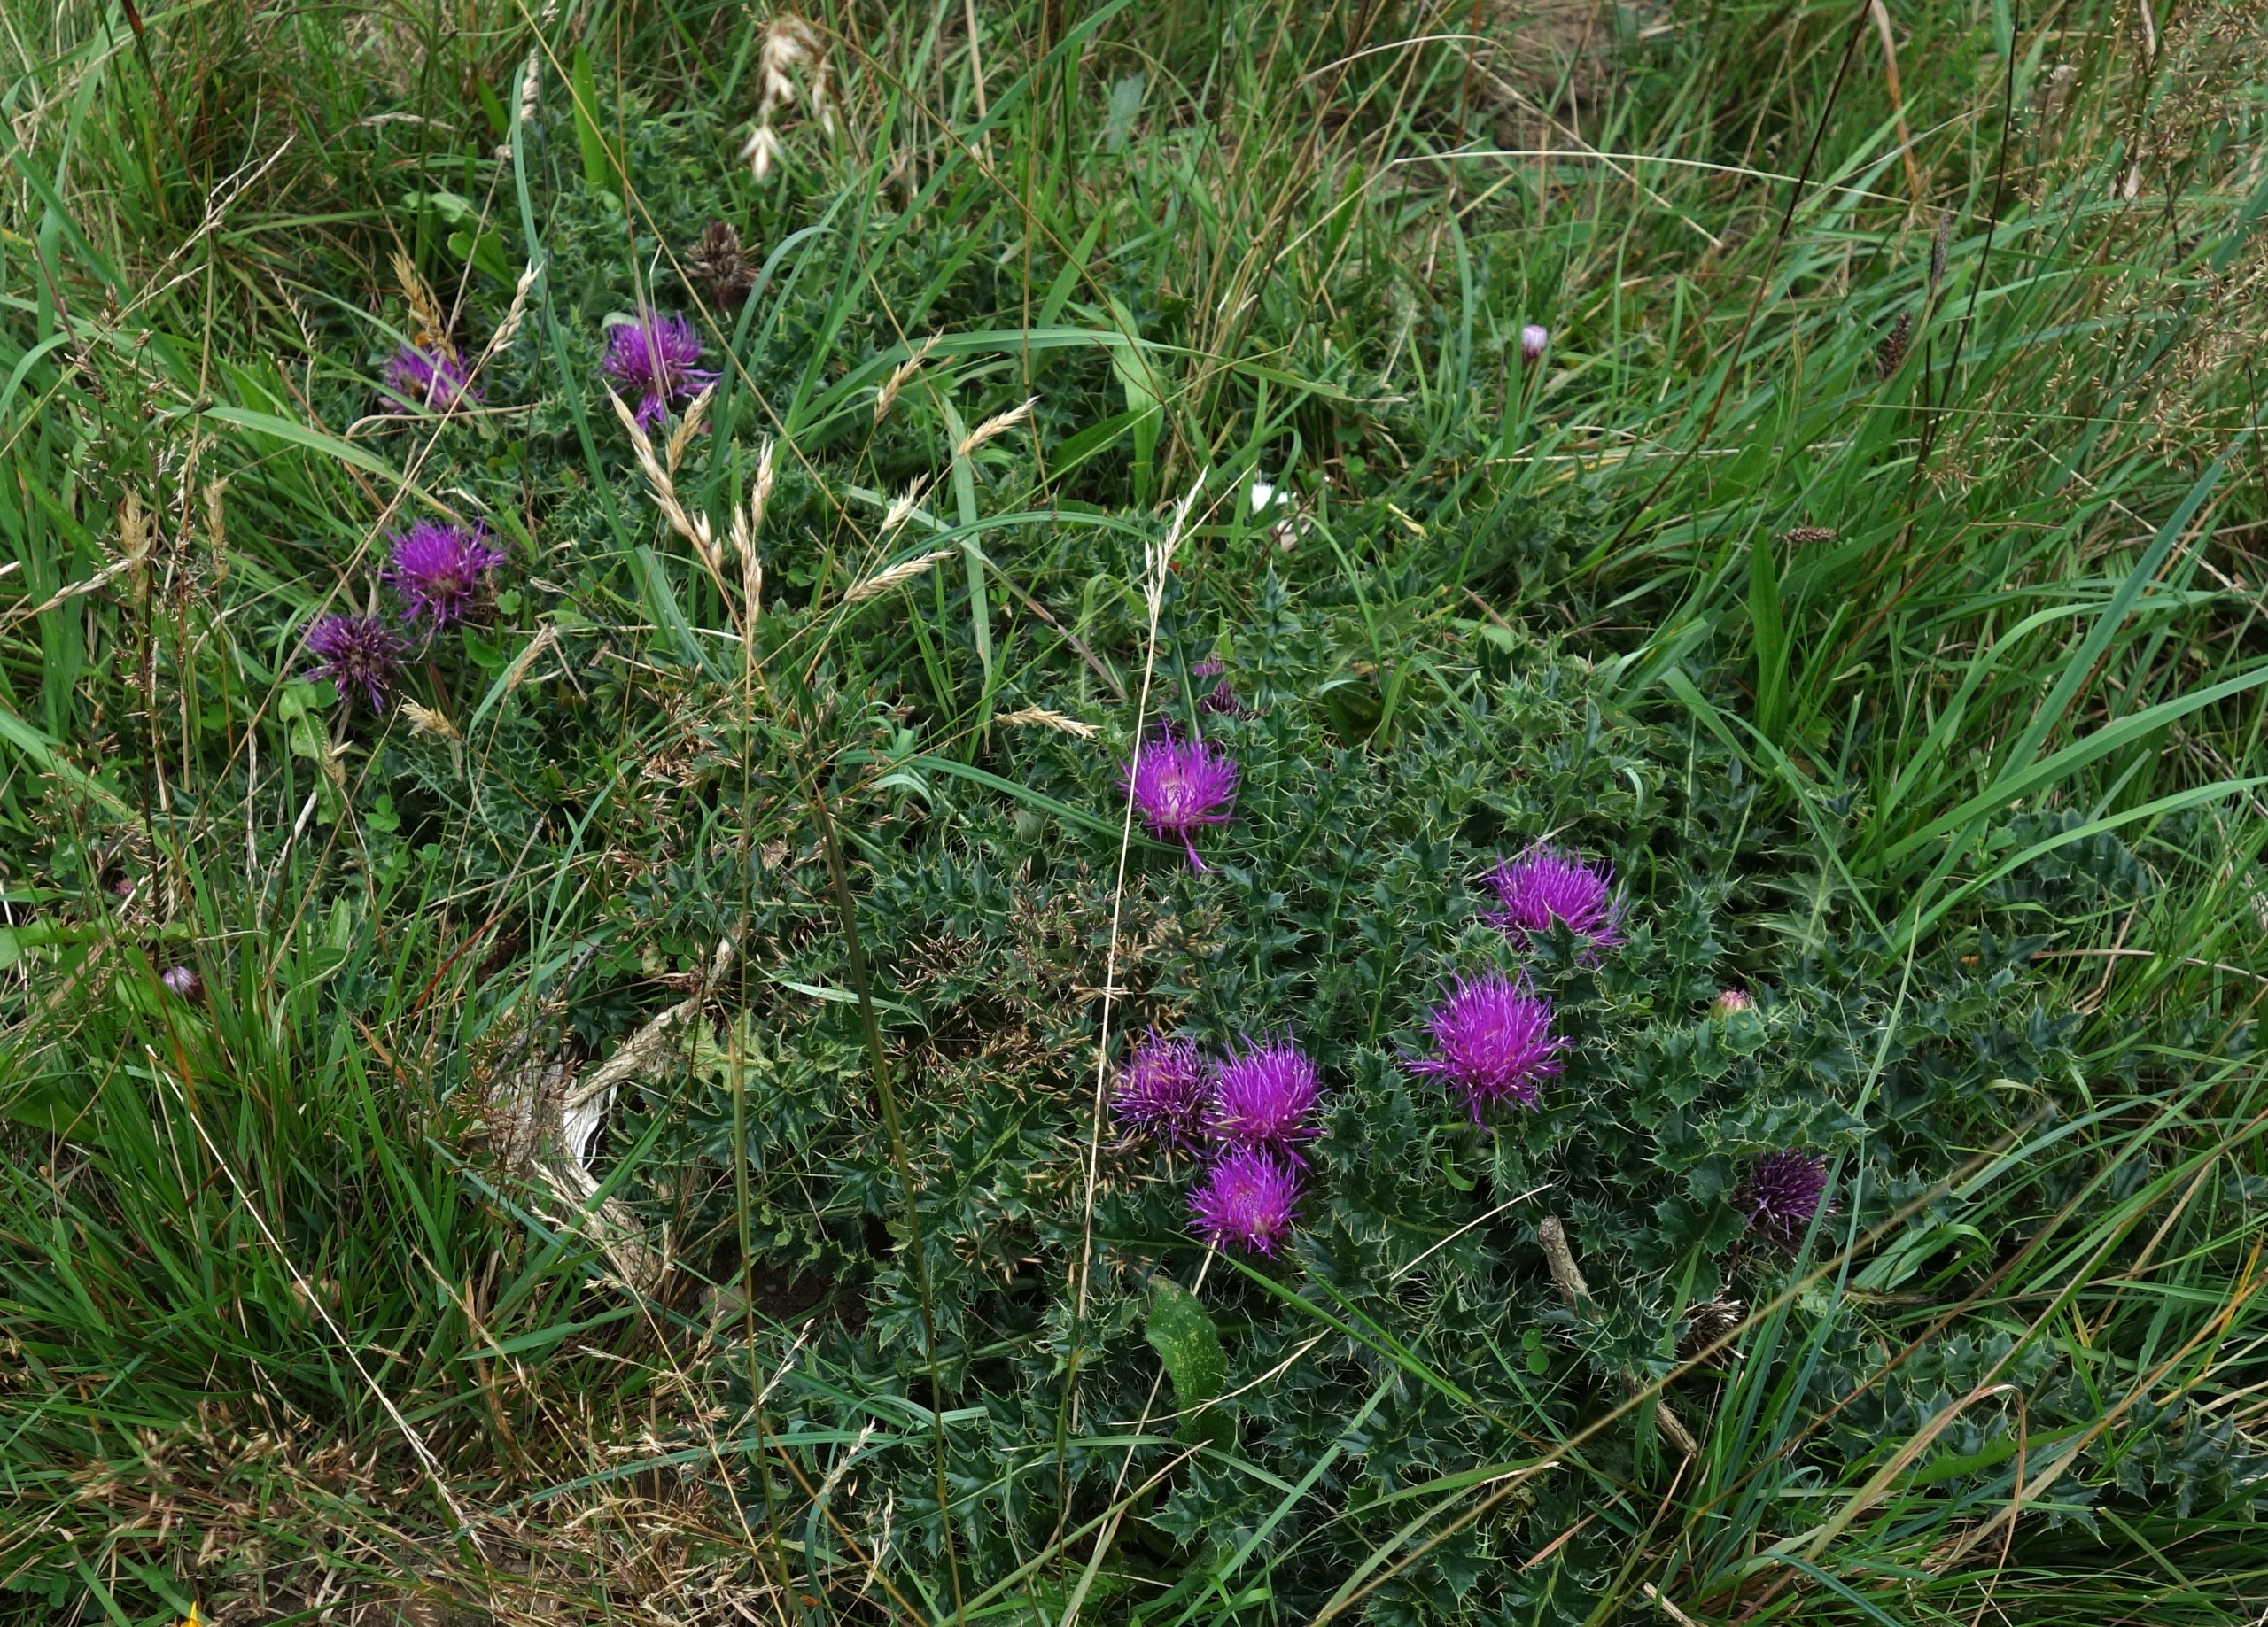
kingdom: Plantae
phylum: Tracheophyta
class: Magnoliopsida
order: Asterales
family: Asteraceae
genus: Cirsium
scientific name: Cirsium acaule
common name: Lav tidsel
